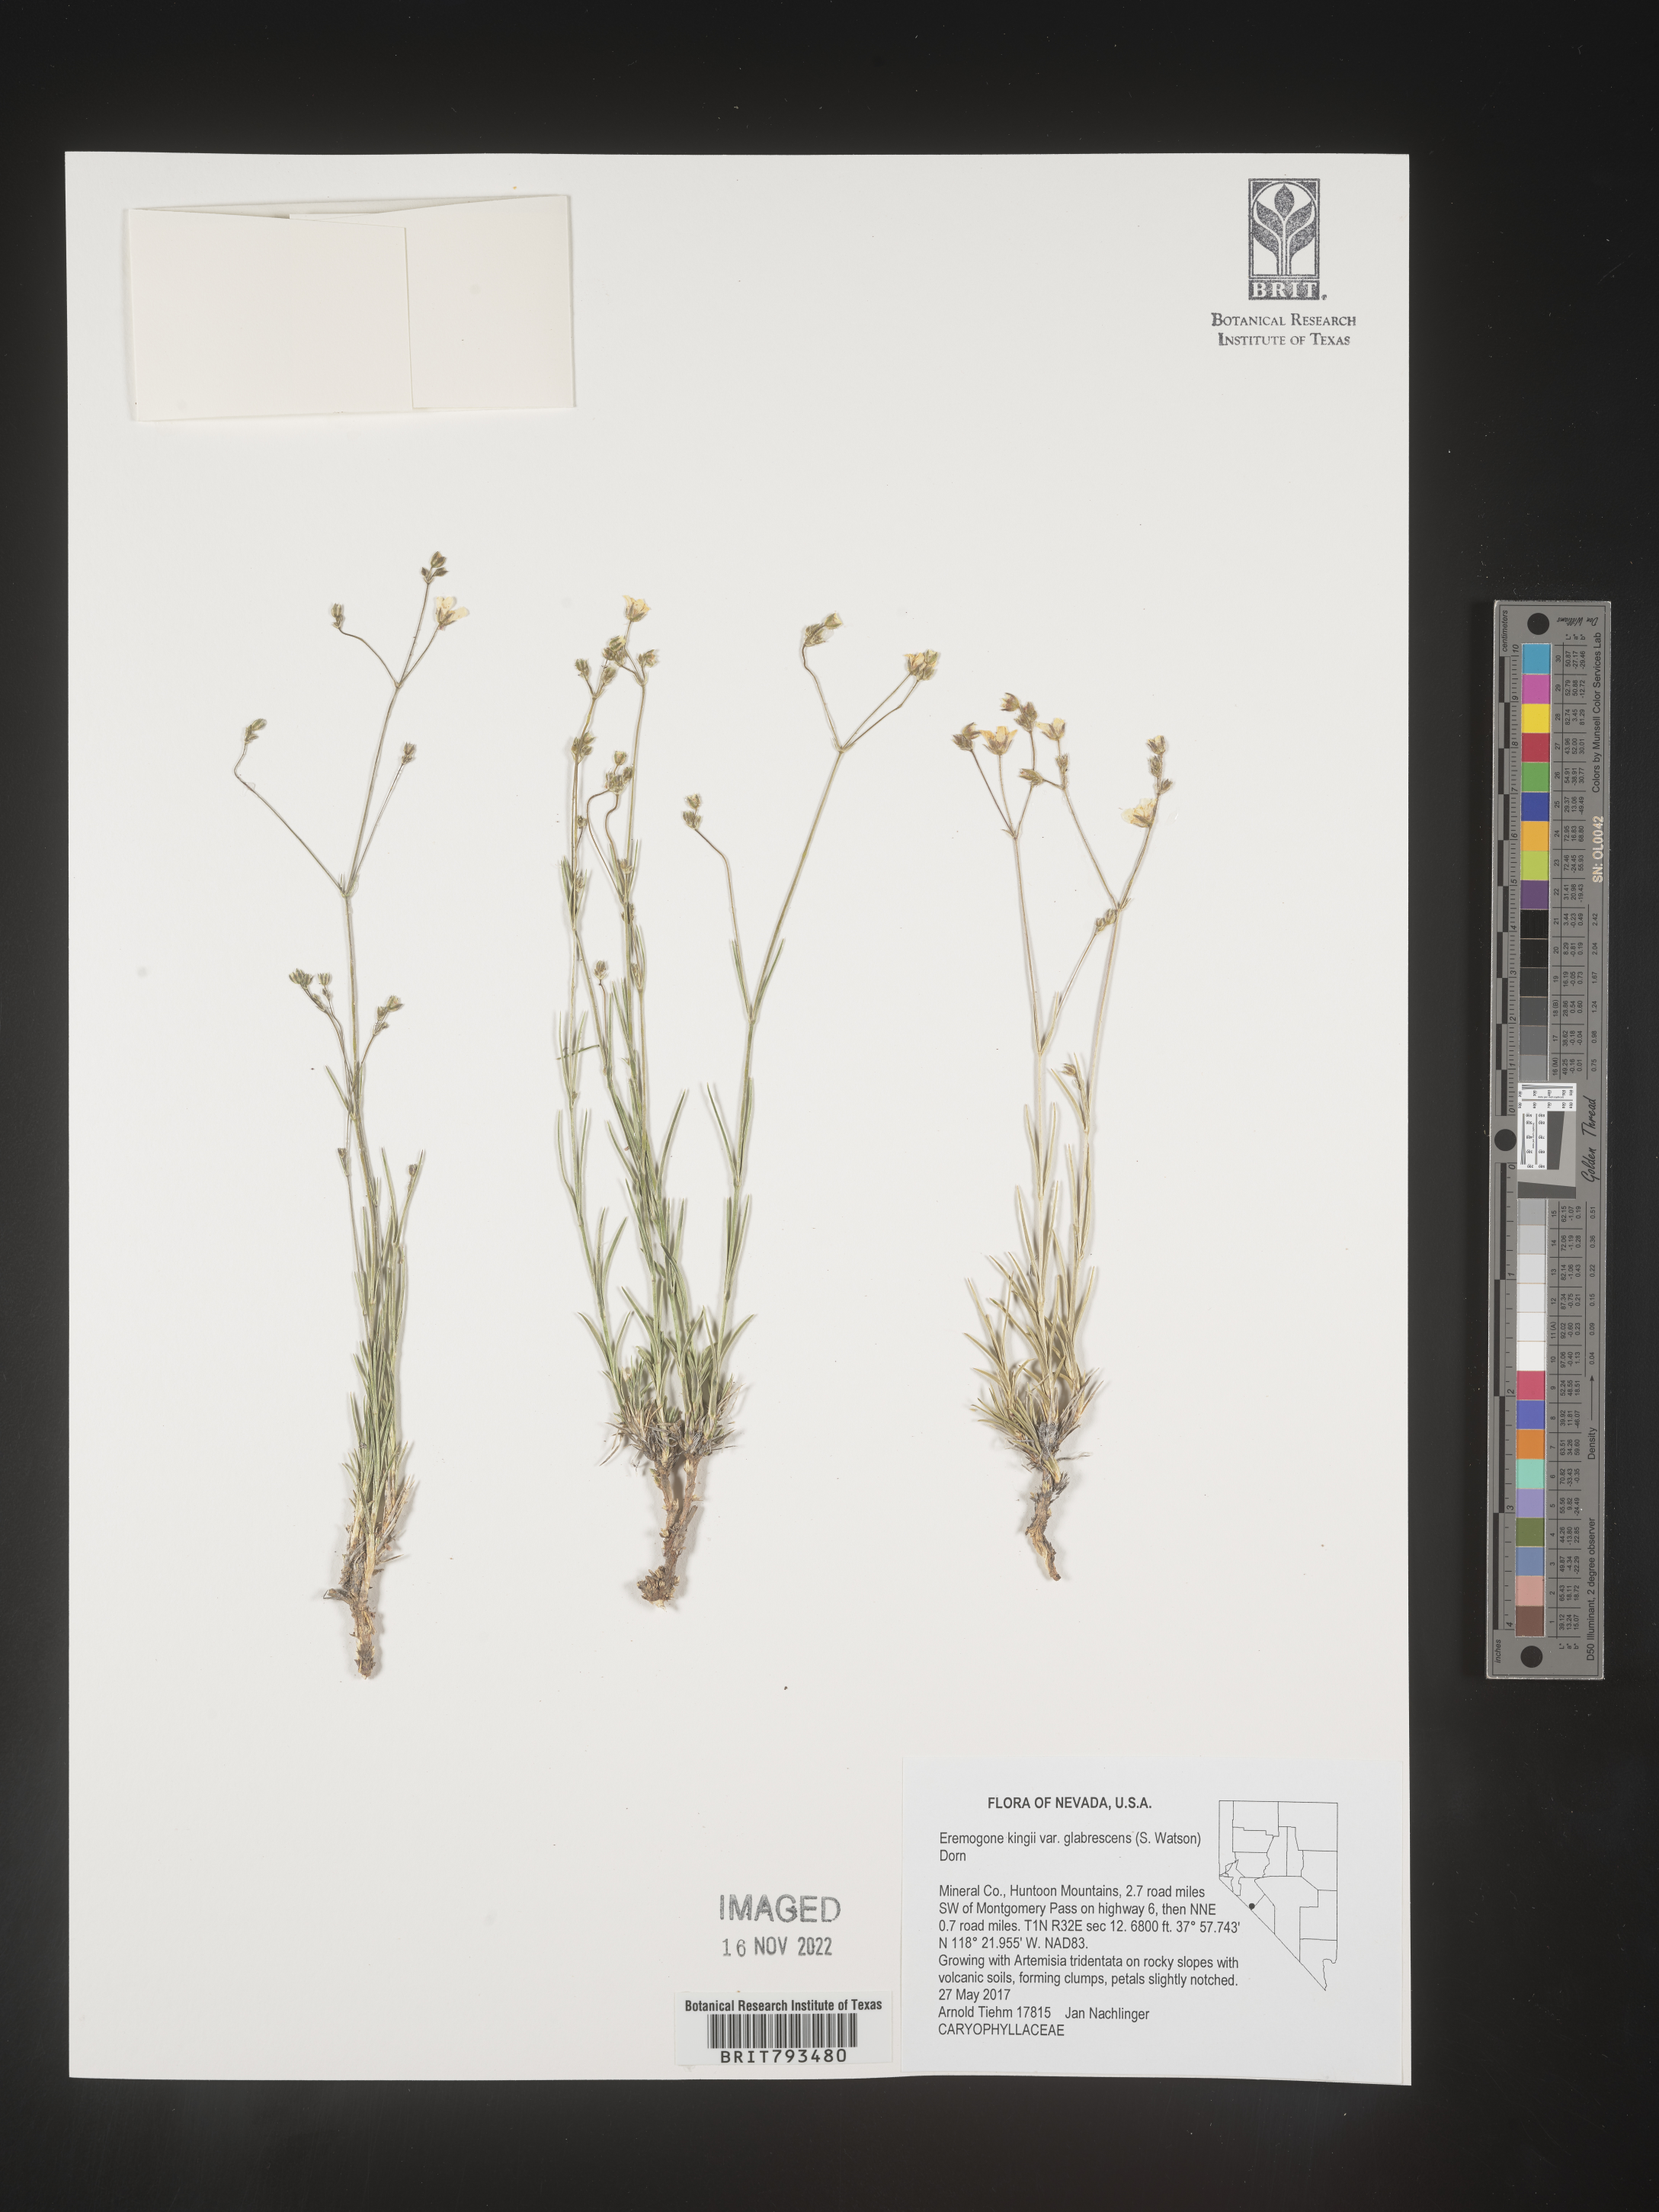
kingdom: Plantae
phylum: Tracheophyta
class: Magnoliopsida
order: Caryophyllales
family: Caryophyllaceae
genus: Eremogone
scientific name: Eremogone kingii
